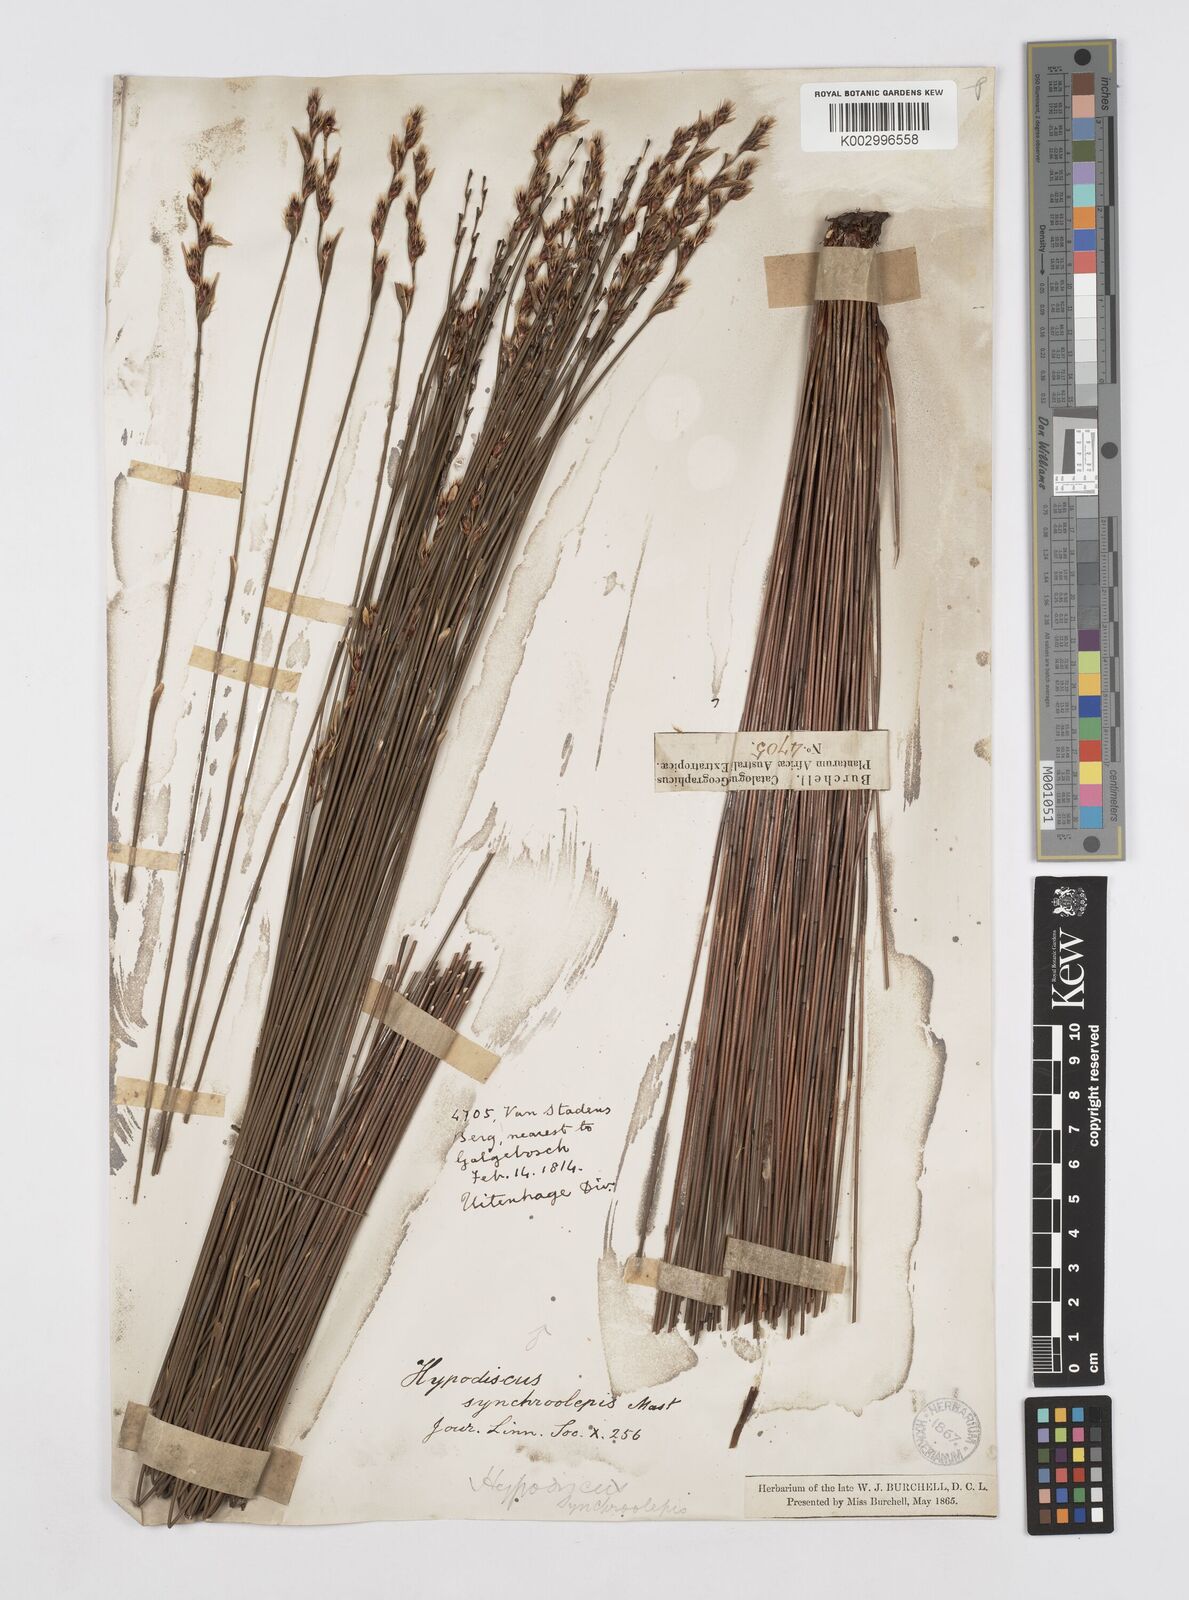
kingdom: Plantae
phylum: Tracheophyta
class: Liliopsida
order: Poales
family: Restionaceae
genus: Hypodiscus
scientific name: Hypodiscus synchroolepis
